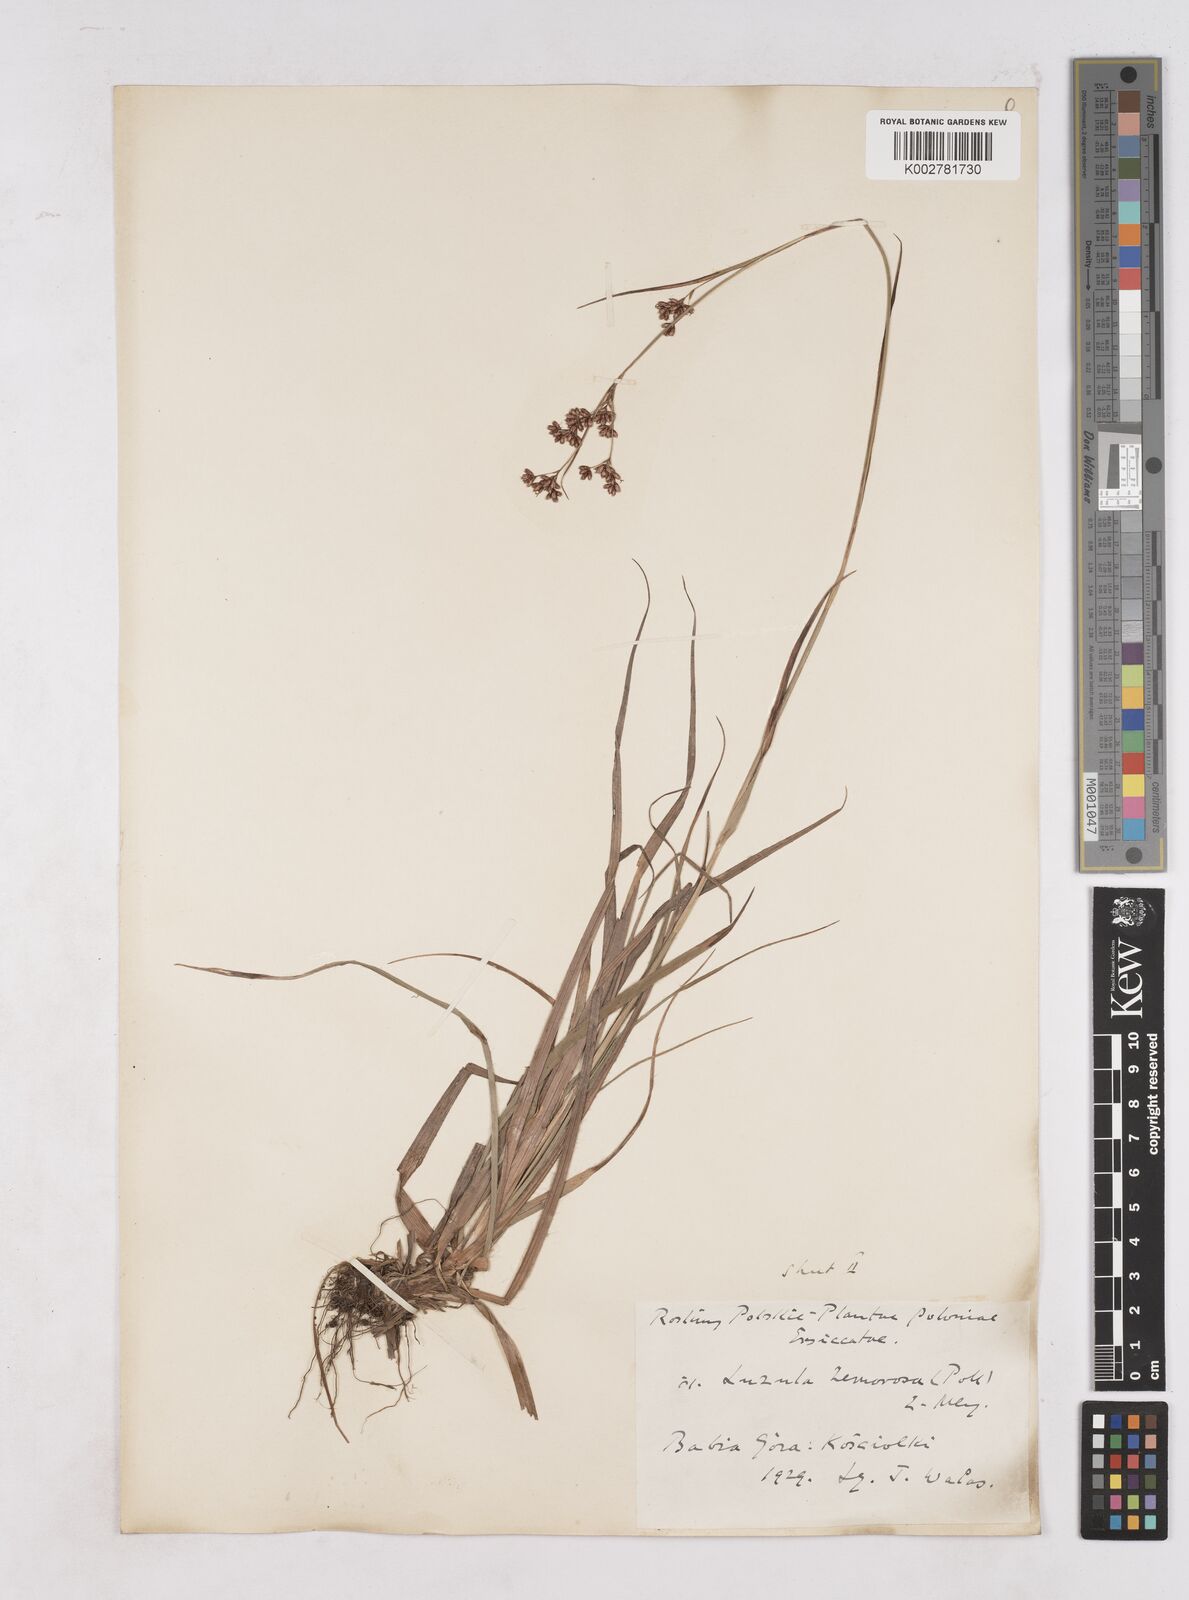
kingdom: Plantae
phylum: Tracheophyta
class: Liliopsida
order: Poales
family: Juncaceae
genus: Luzula
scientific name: Luzula luzuloides
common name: White wood-rush
